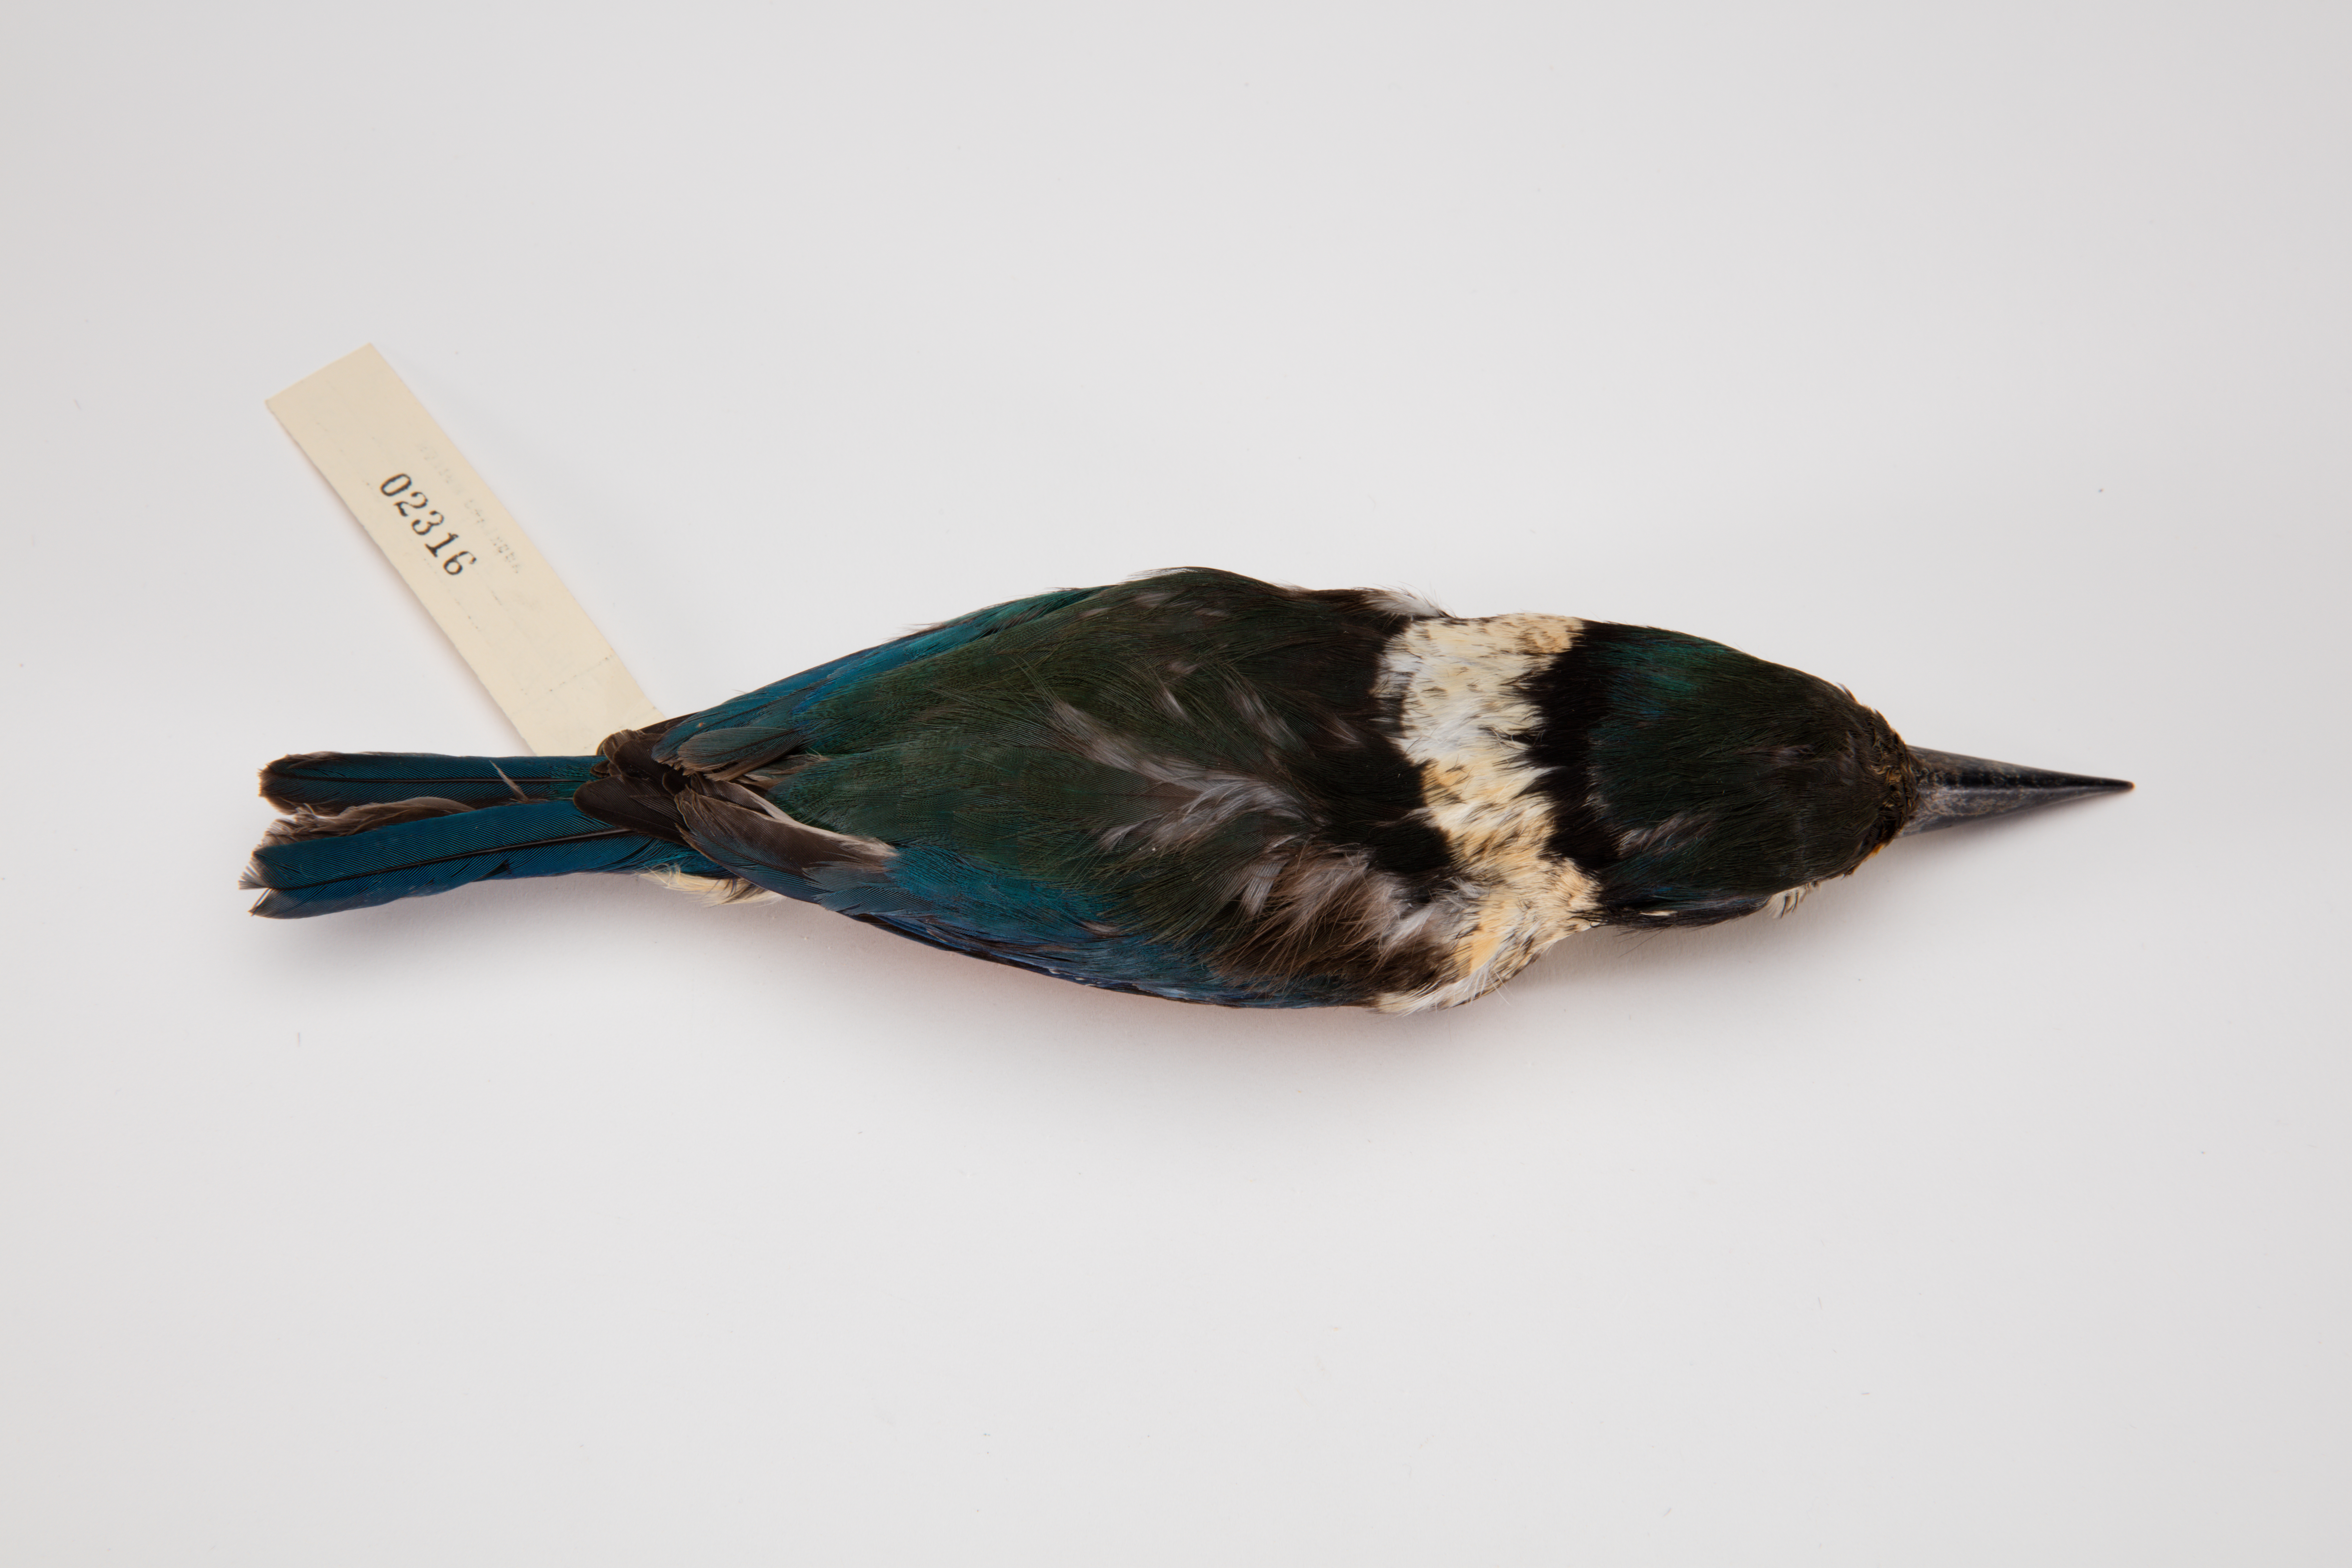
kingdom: Animalia
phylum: Chordata
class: Aves
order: Coraciiformes
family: Alcedinidae
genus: Todiramphus
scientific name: Todiramphus sanctus
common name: Sacred kingfisher
